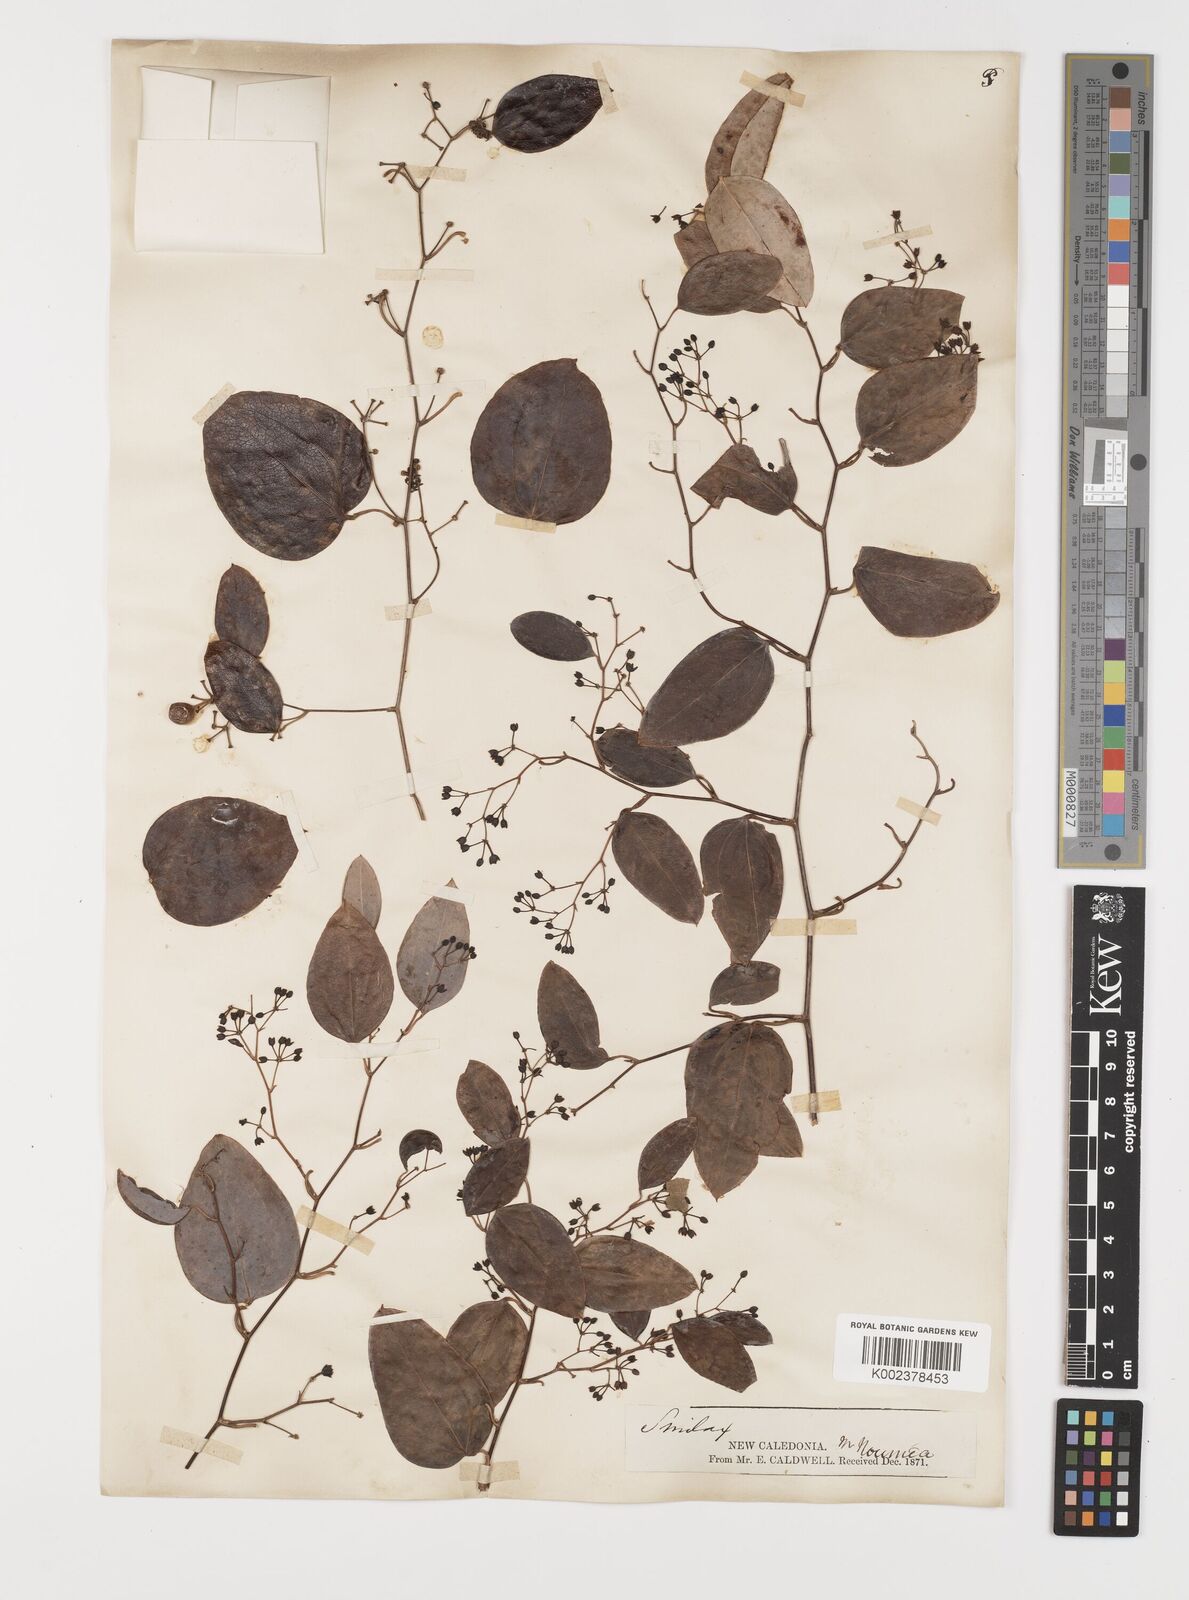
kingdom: Plantae
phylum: Tracheophyta
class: Liliopsida
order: Liliales
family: Smilacaceae
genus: Smilax
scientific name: Smilax purpurata
